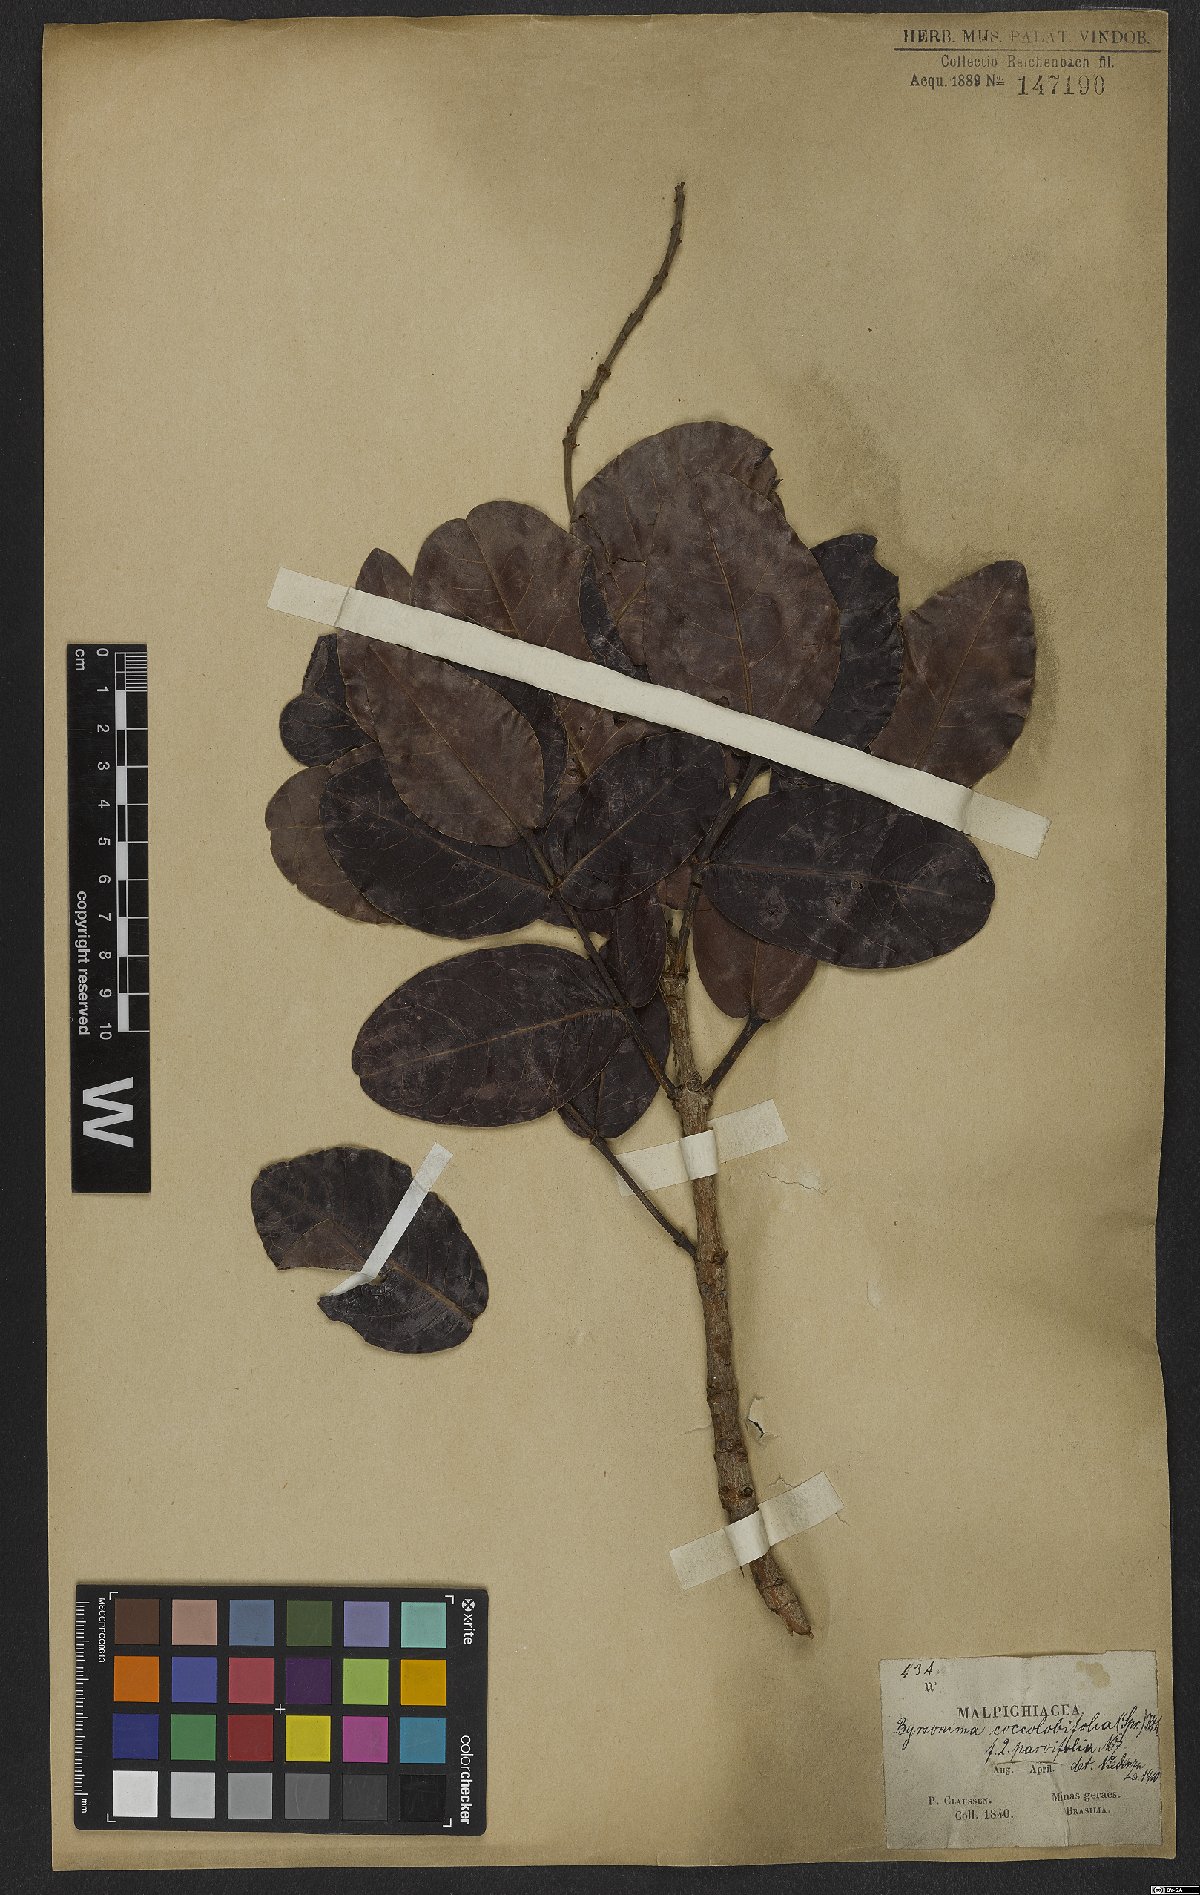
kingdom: Plantae
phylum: Tracheophyta
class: Magnoliopsida
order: Malpighiales
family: Malpighiaceae
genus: Byrsonima
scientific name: Byrsonima coccolobifolia
